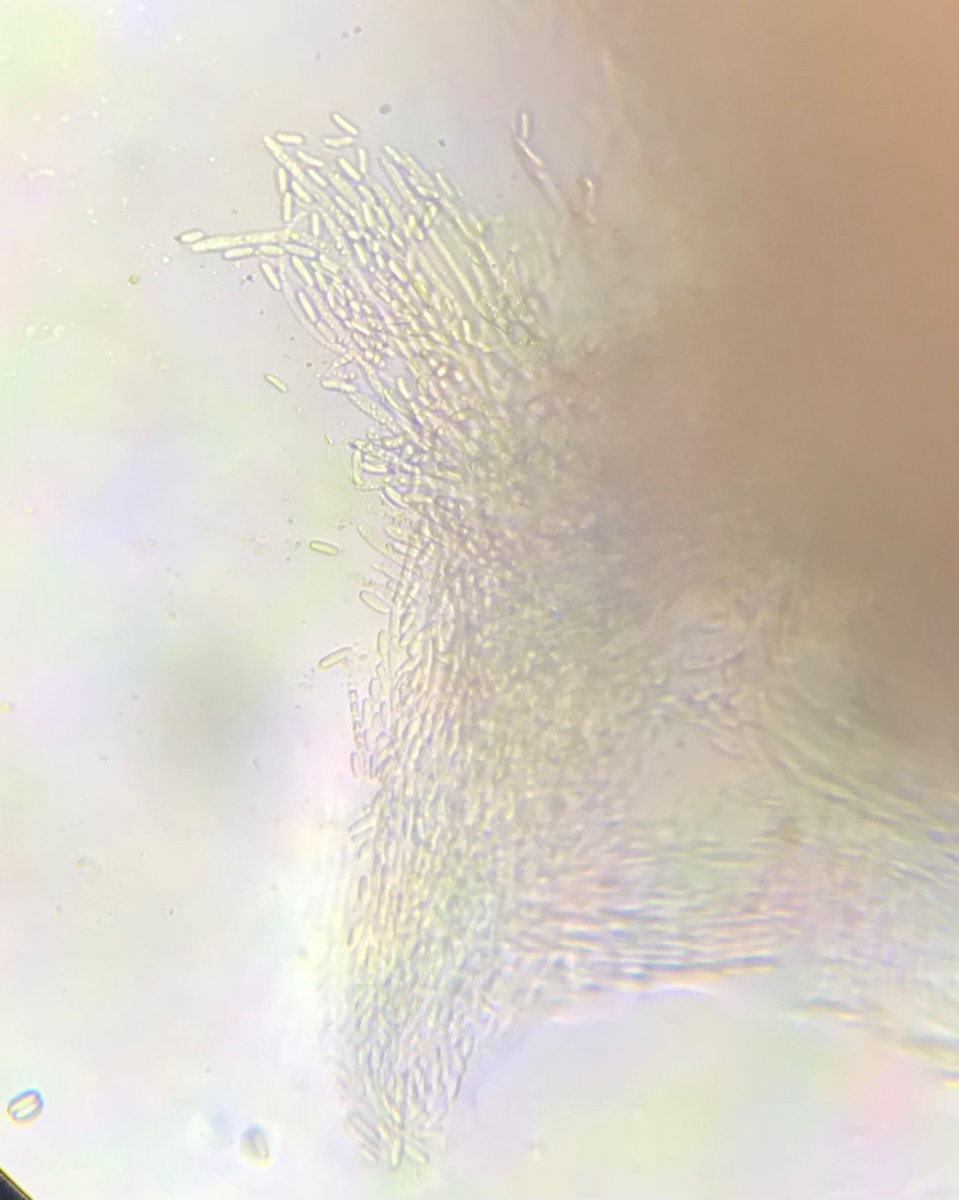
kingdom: Fungi
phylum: Ascomycota
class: Sordariomycetes
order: Hypocreales
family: Nectriaceae
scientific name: Nectriaceae
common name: cinnobersvampfamilien
